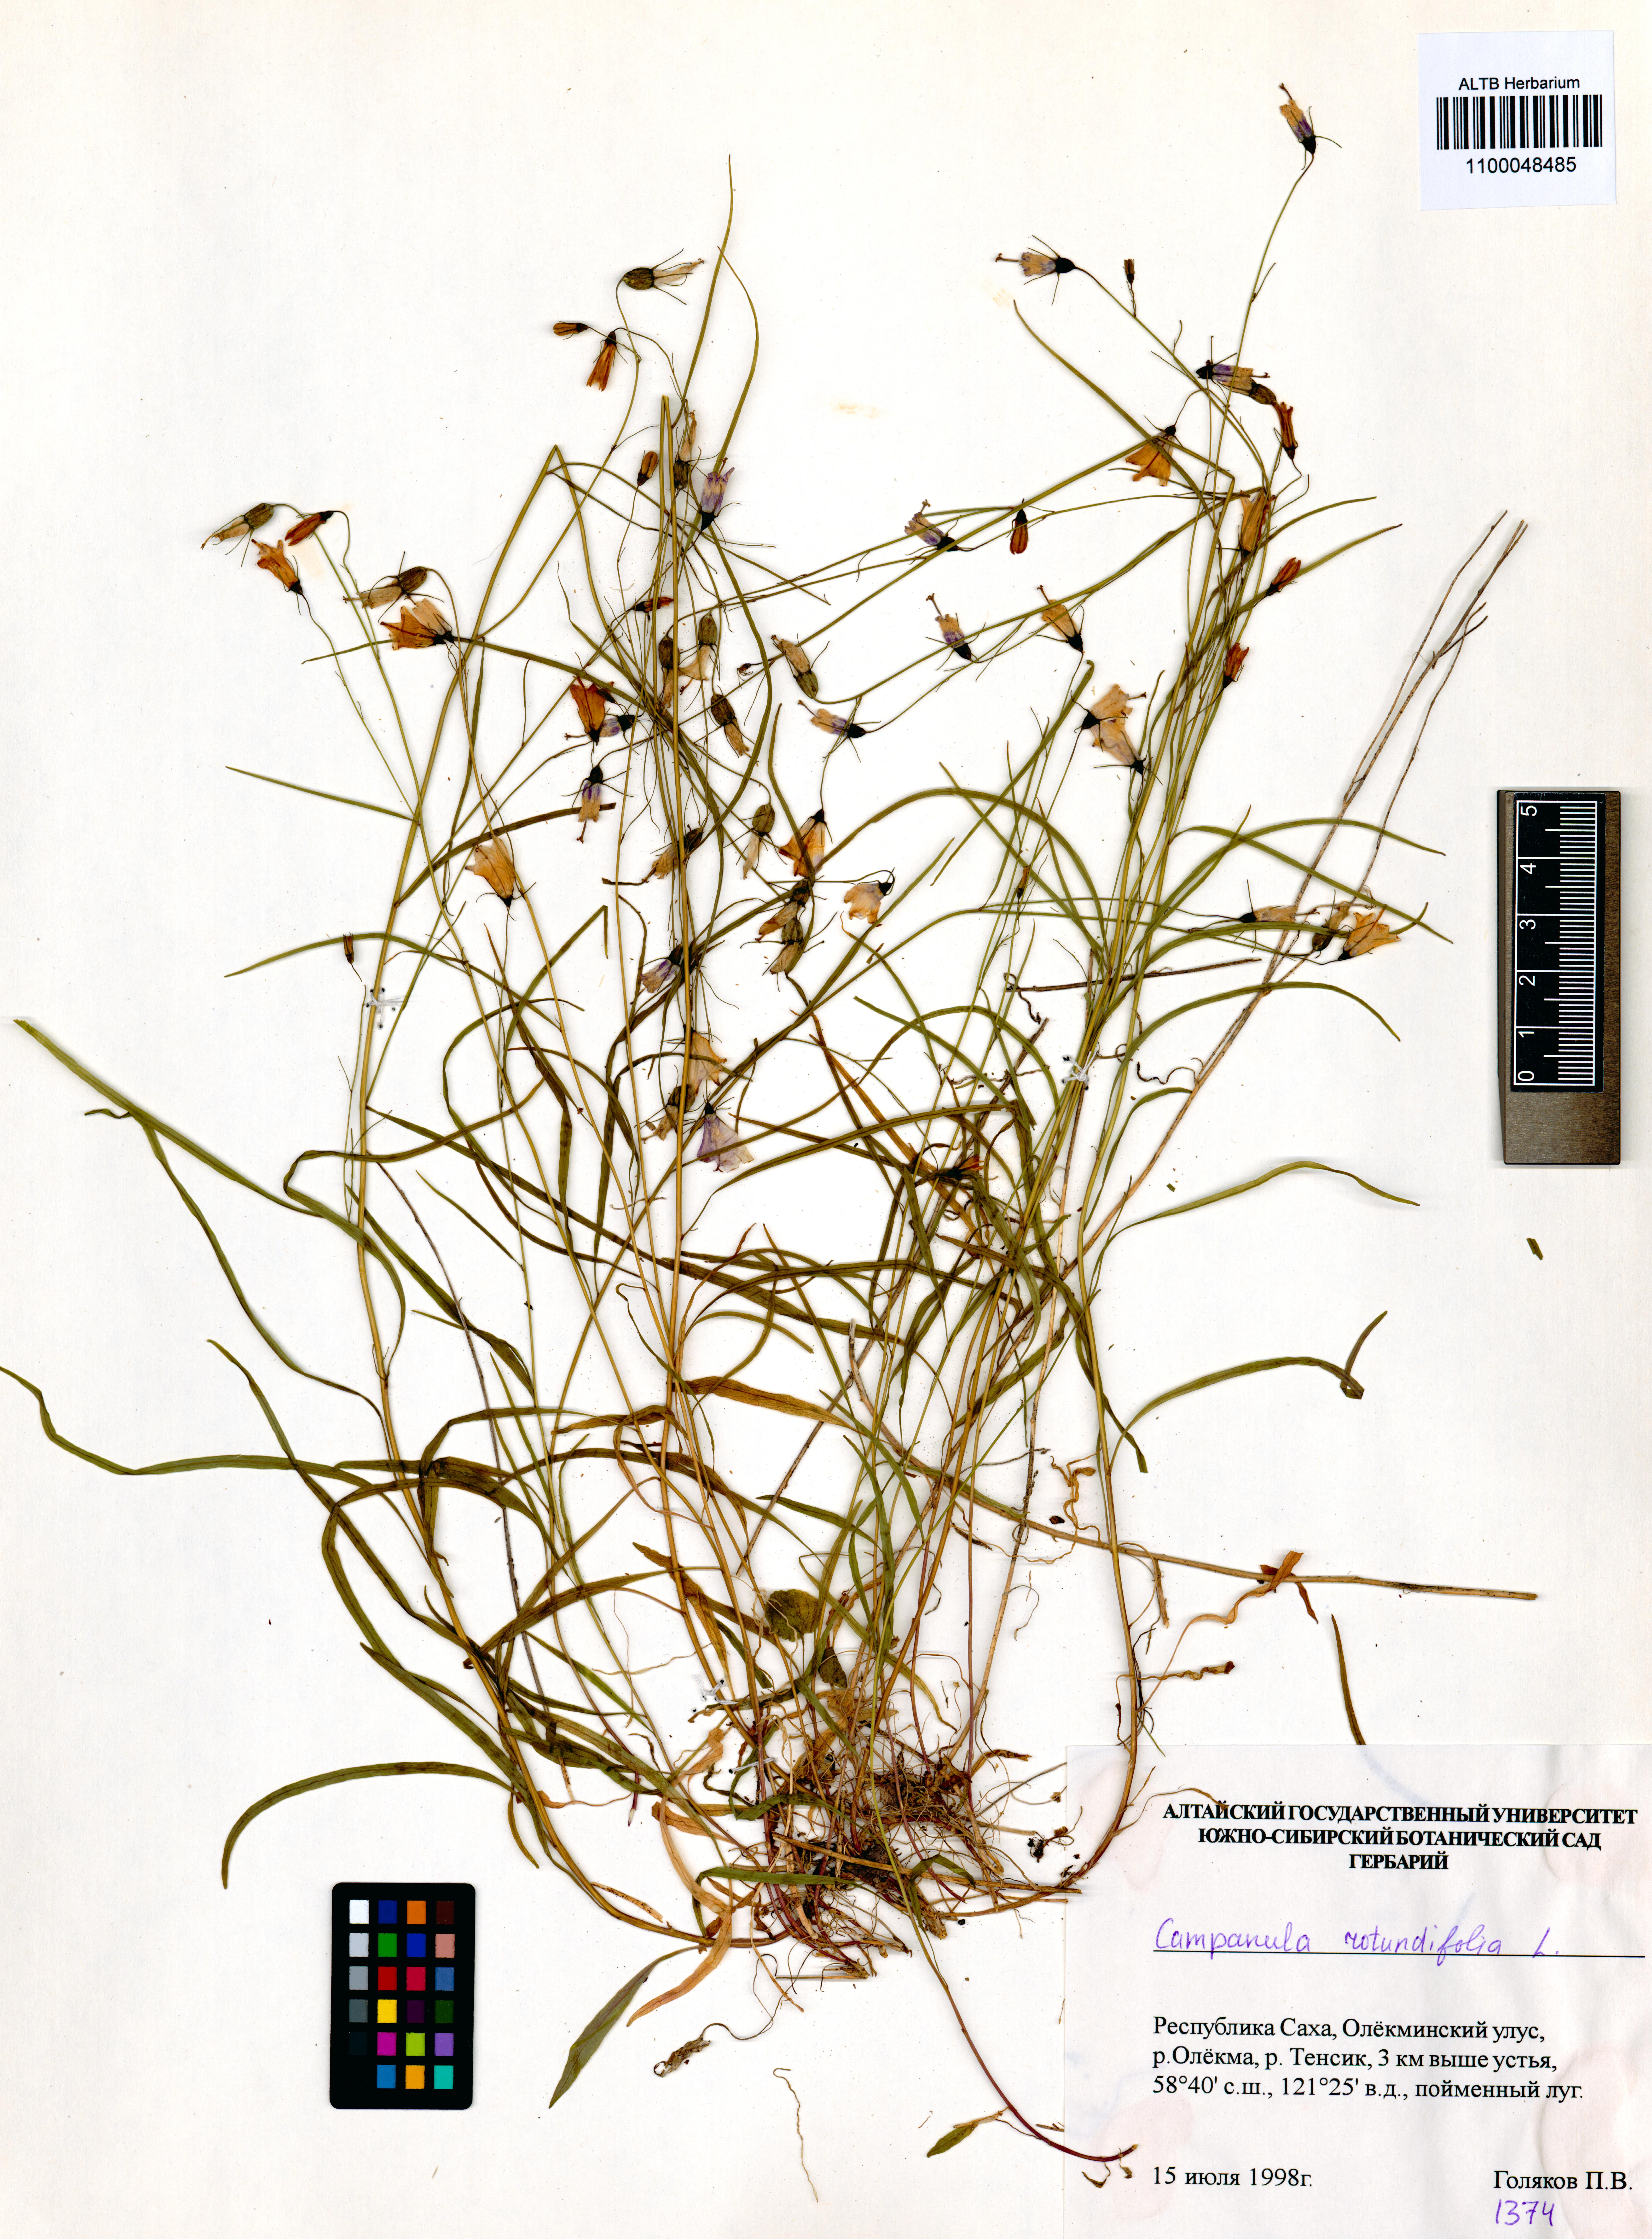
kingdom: Plantae
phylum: Tracheophyta
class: Magnoliopsida
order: Asterales
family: Campanulaceae
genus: Campanula
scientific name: Campanula rotundifolia
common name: Harebell
